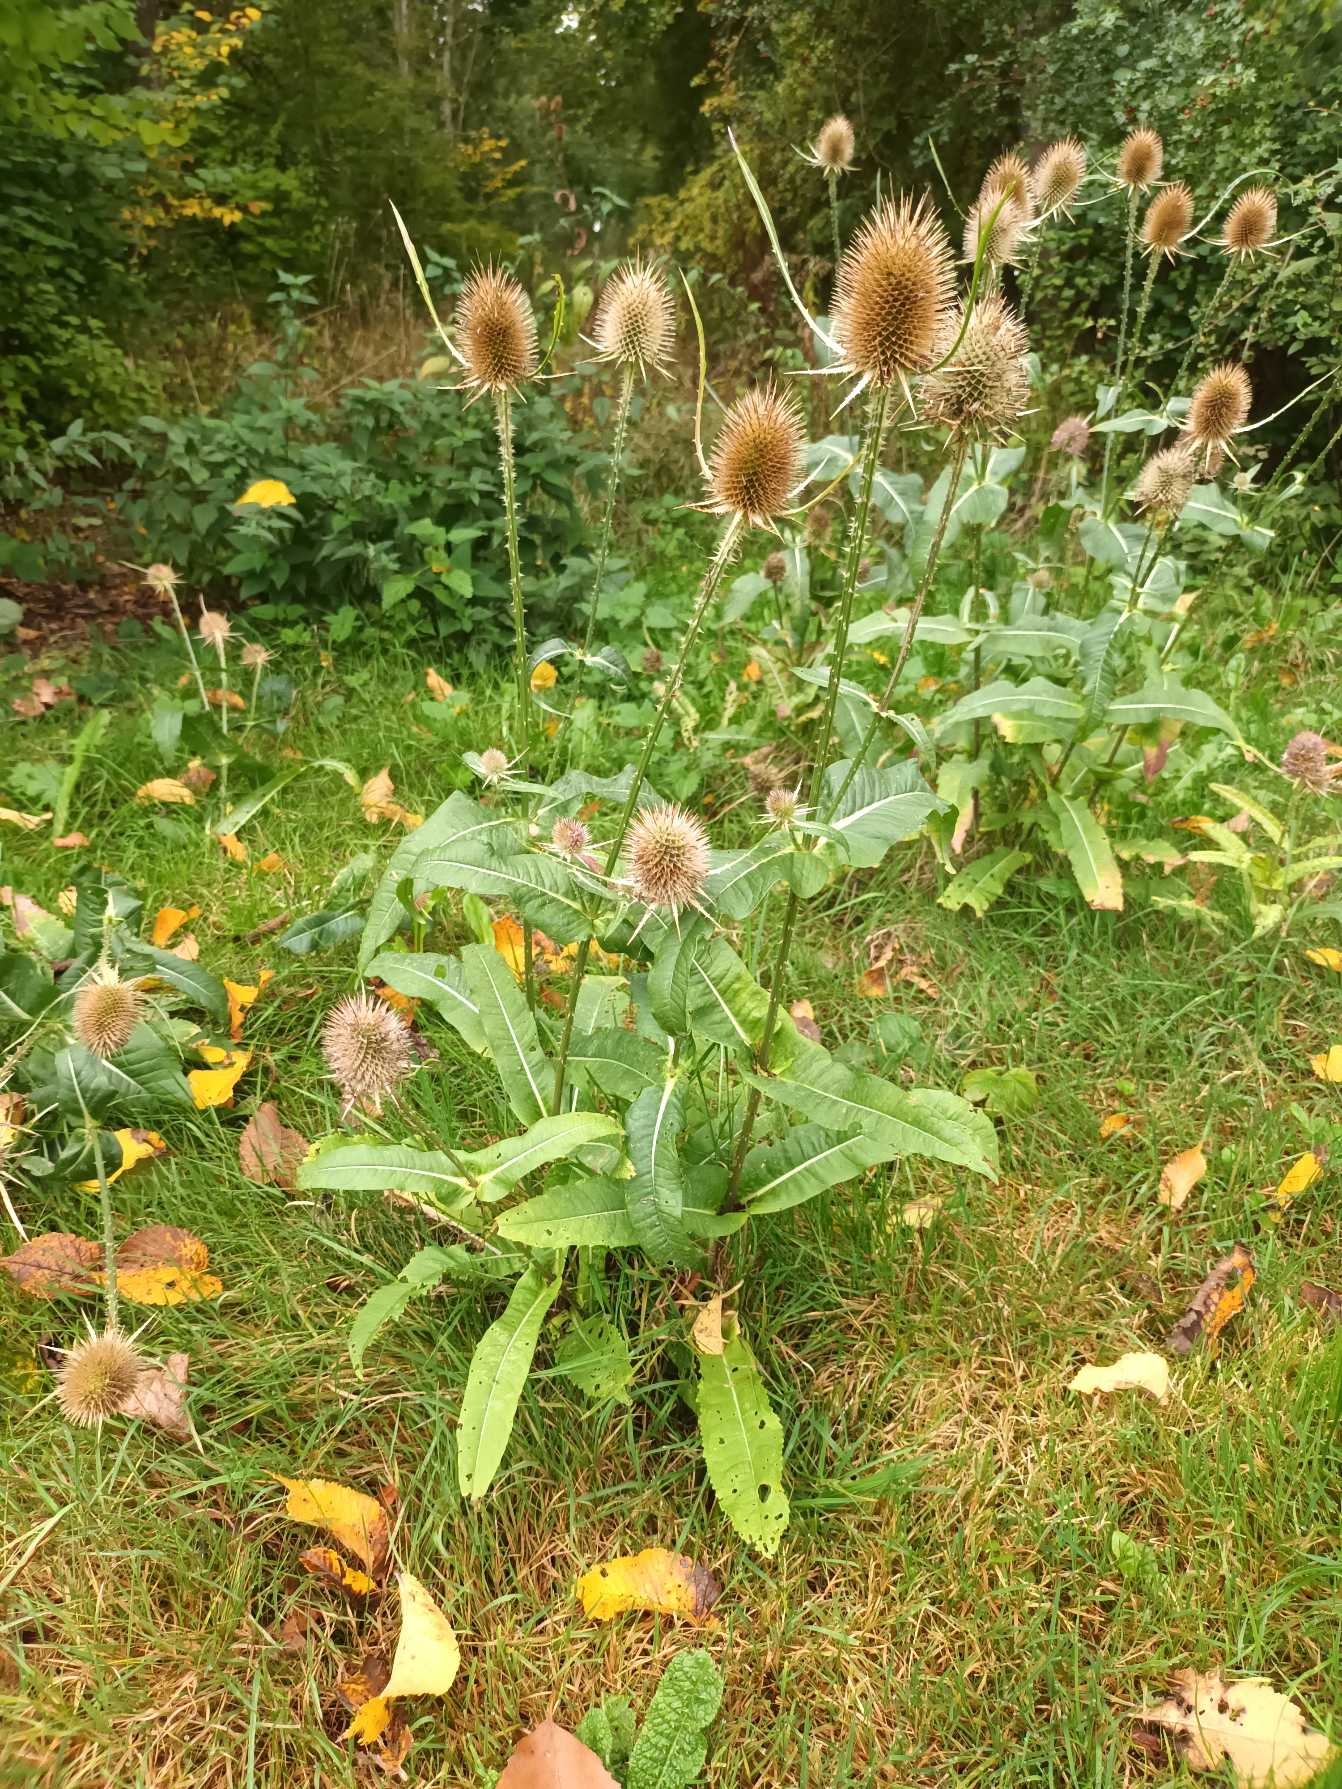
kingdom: Plantae
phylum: Tracheophyta
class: Magnoliopsida
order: Dipsacales
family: Caprifoliaceae
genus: Dipsacus
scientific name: Dipsacus fullonum
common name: Gærde-kartebolle
